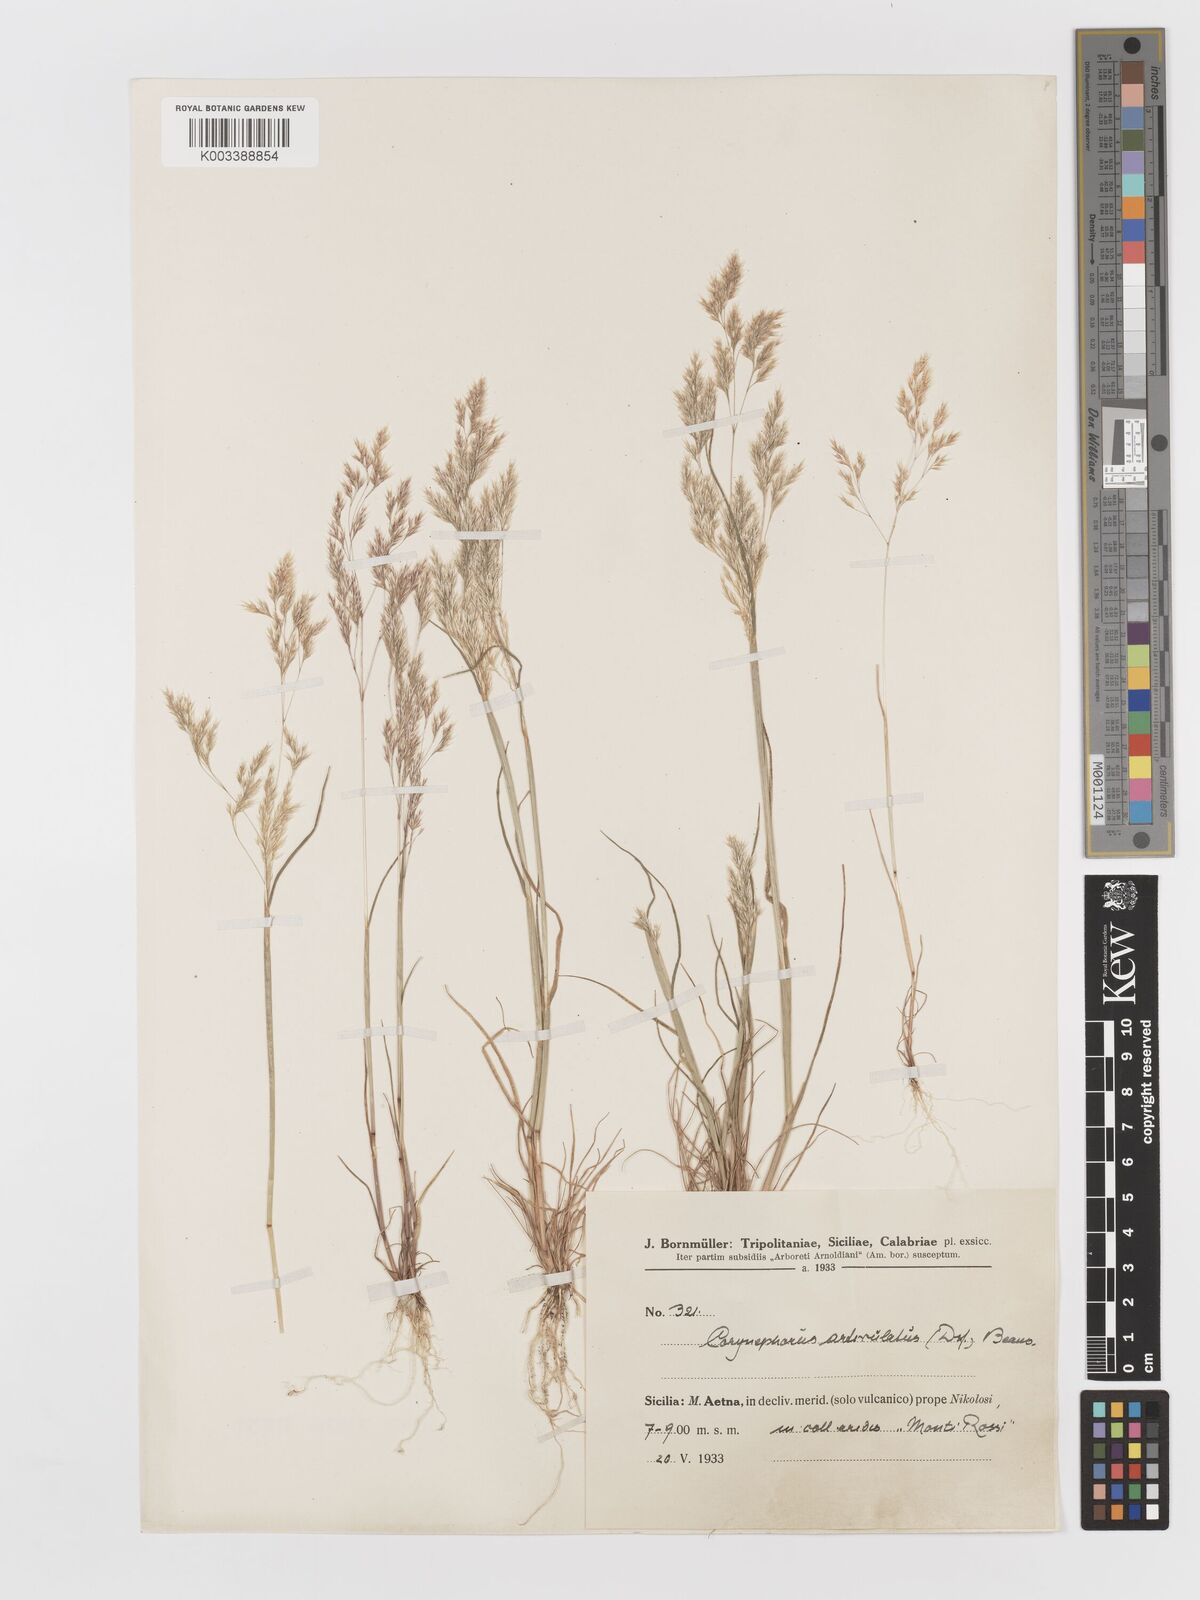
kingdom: Plantae
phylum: Tracheophyta
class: Liliopsida
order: Poales
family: Poaceae
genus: Corynephorus
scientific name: Corynephorus divaricatus
